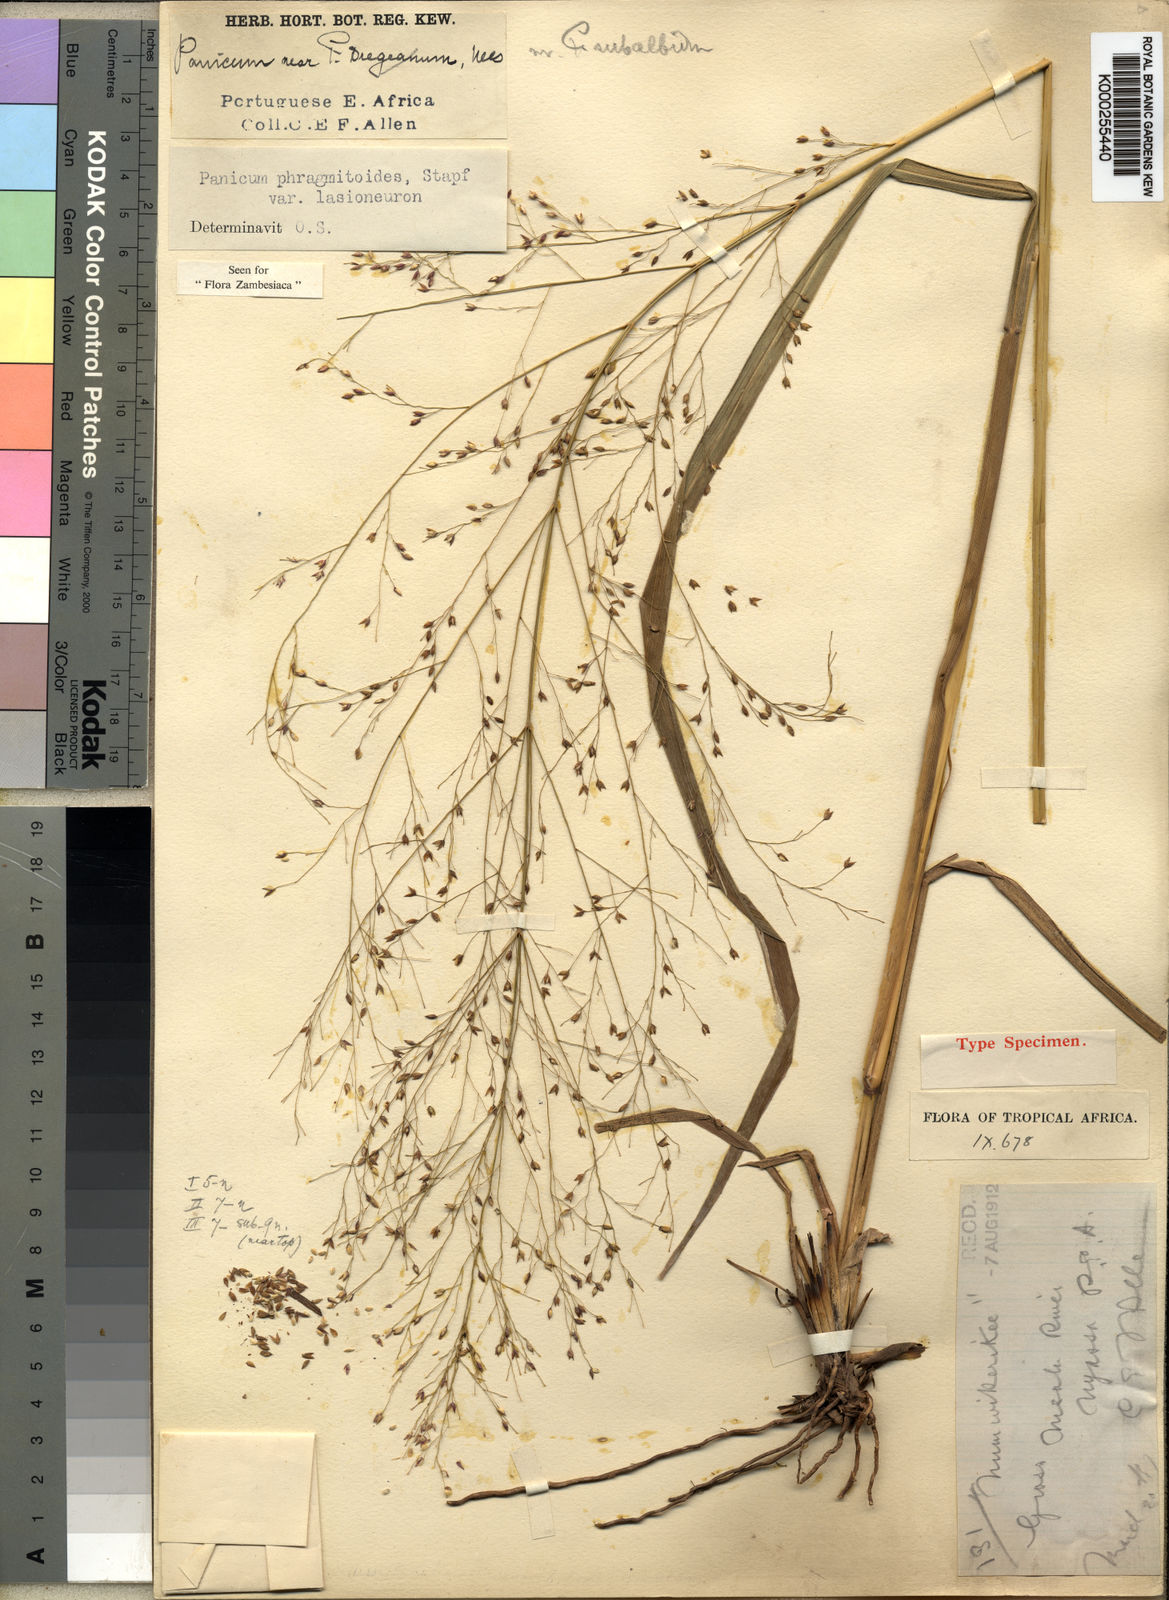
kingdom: Plantae
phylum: Tracheophyta
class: Liliopsida
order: Poales
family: Poaceae
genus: Panicum
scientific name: Panicum phragmitoides
